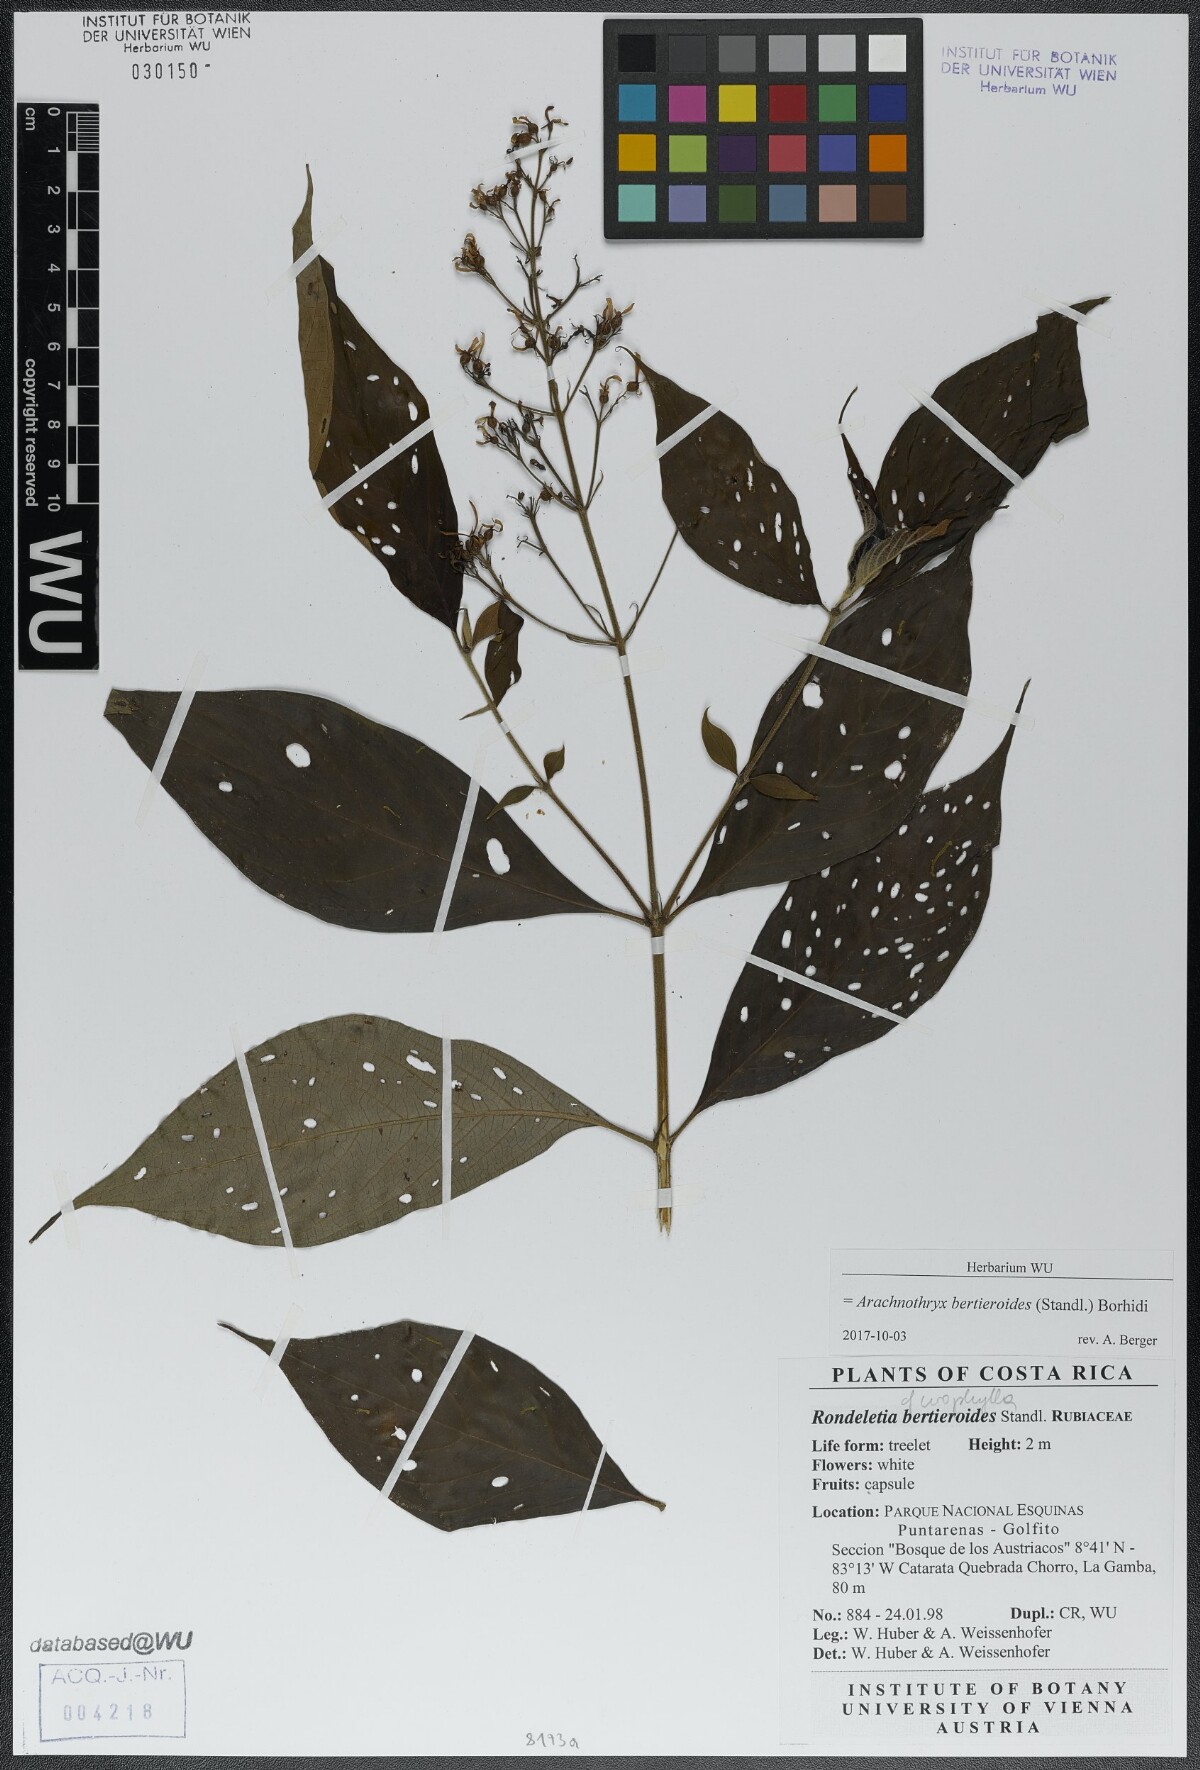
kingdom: Plantae
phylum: Tracheophyta
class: Magnoliopsida
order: Gentianales
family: Rubiaceae
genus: Arachnothryx
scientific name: Arachnothryx bertieroides
